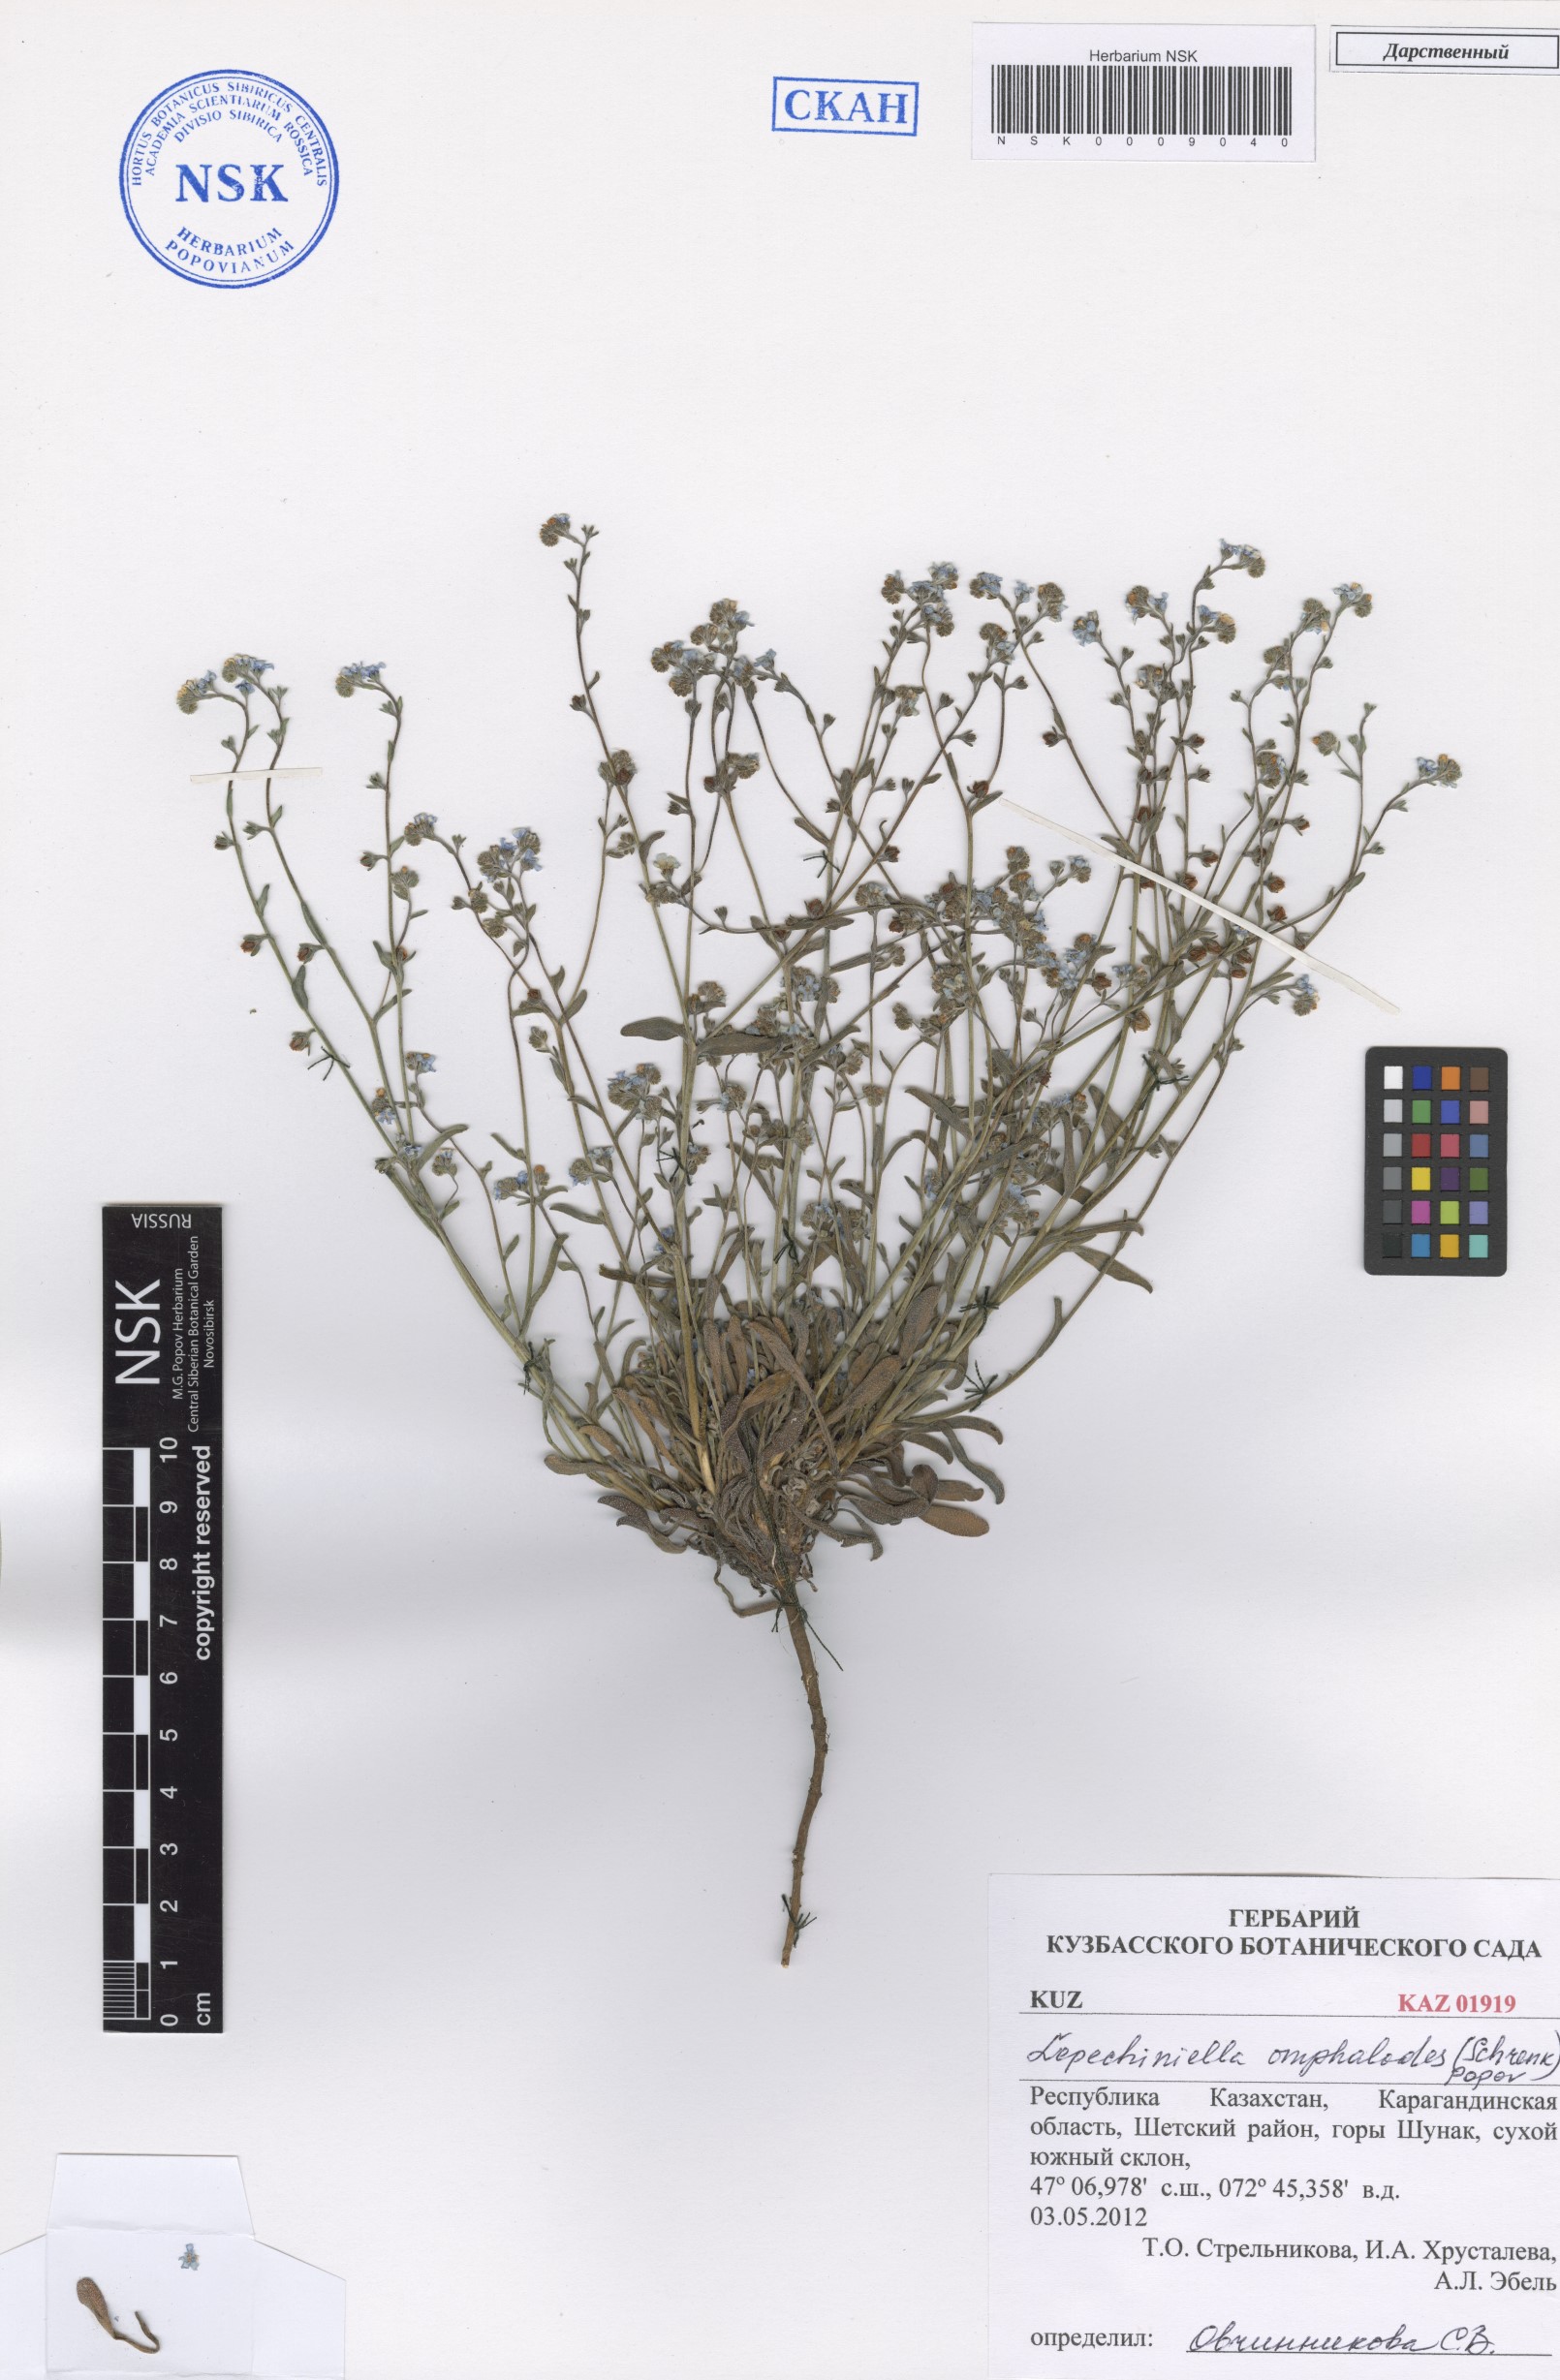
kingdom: Plantae
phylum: Tracheophyta
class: Magnoliopsida
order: Boraginales
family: Boraginaceae
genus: Lepechiniella
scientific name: Lepechiniella omphaloides
